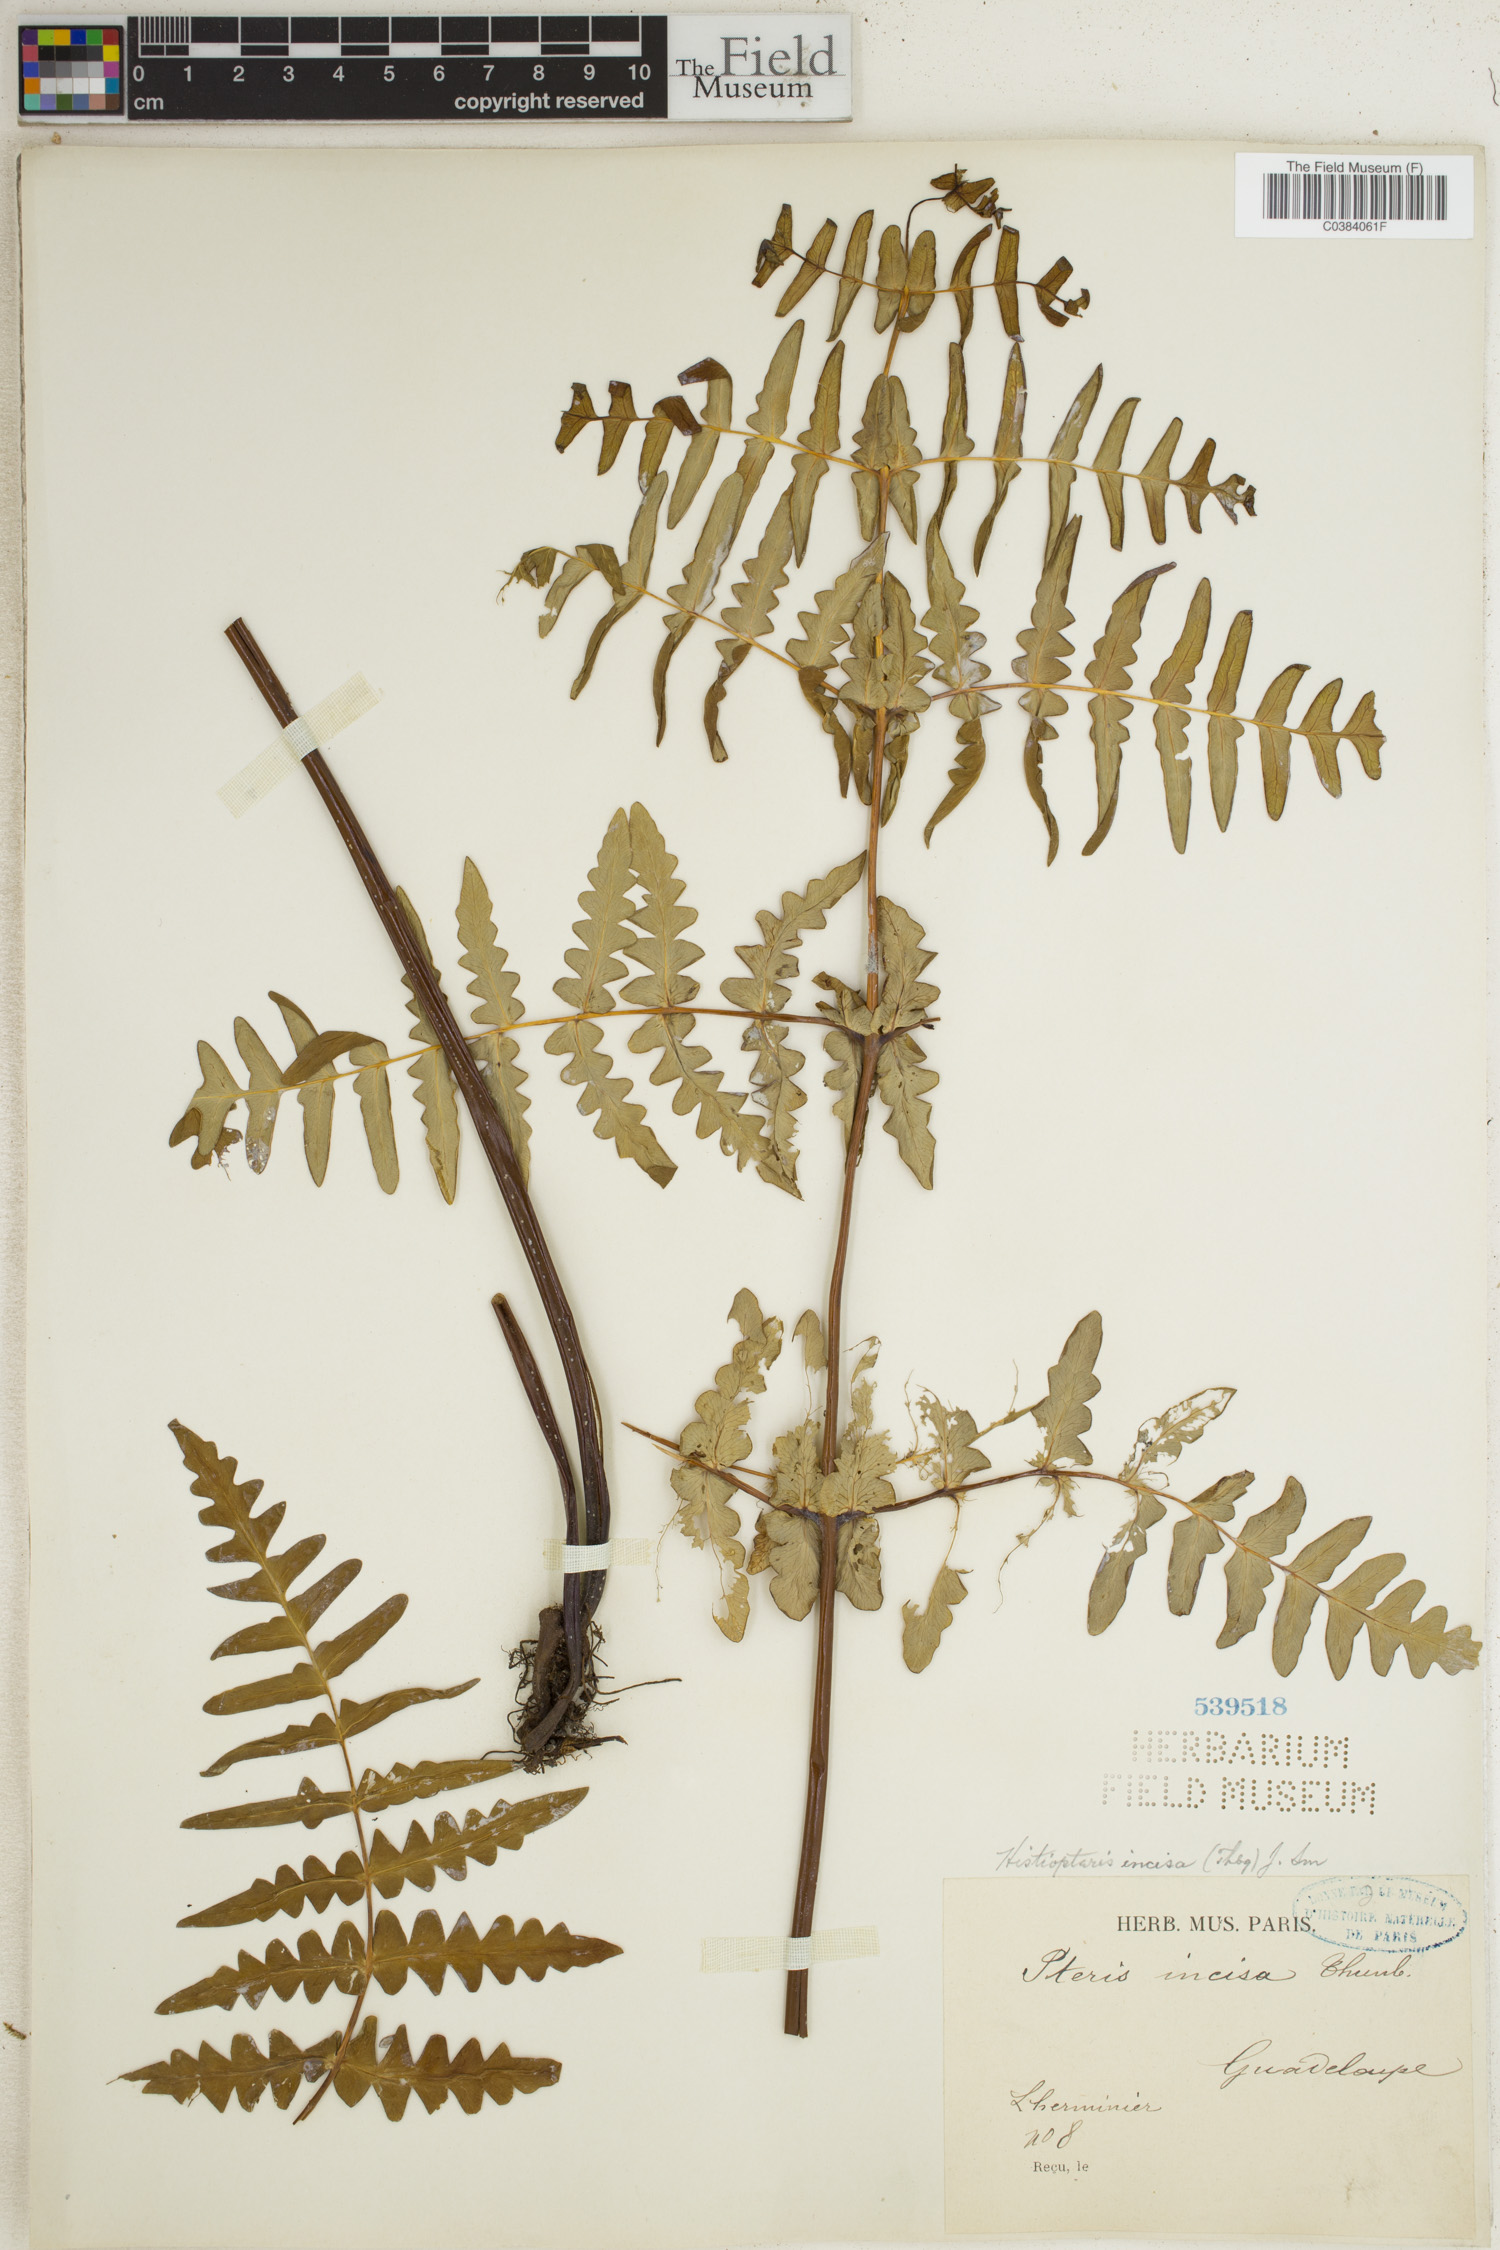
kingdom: Plantae
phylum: Tracheophyta
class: Polypodiopsida
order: Polypodiales
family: Dennstaedtiaceae
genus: Histiopteris
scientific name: Histiopteris incisa
